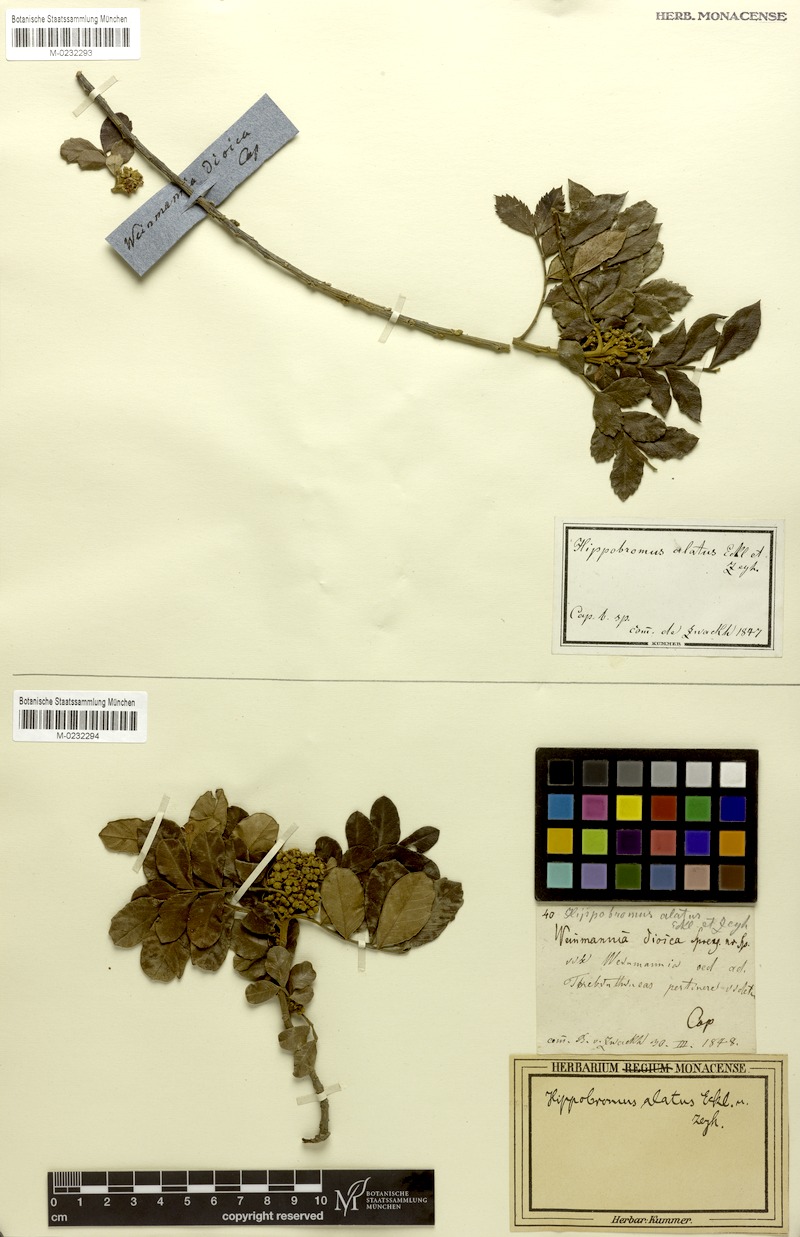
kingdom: Plantae
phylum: Tracheophyta
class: Magnoliopsida
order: Sapindales
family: Sapindaceae
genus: Hippobromus
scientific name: Hippobromus pauciflorus
